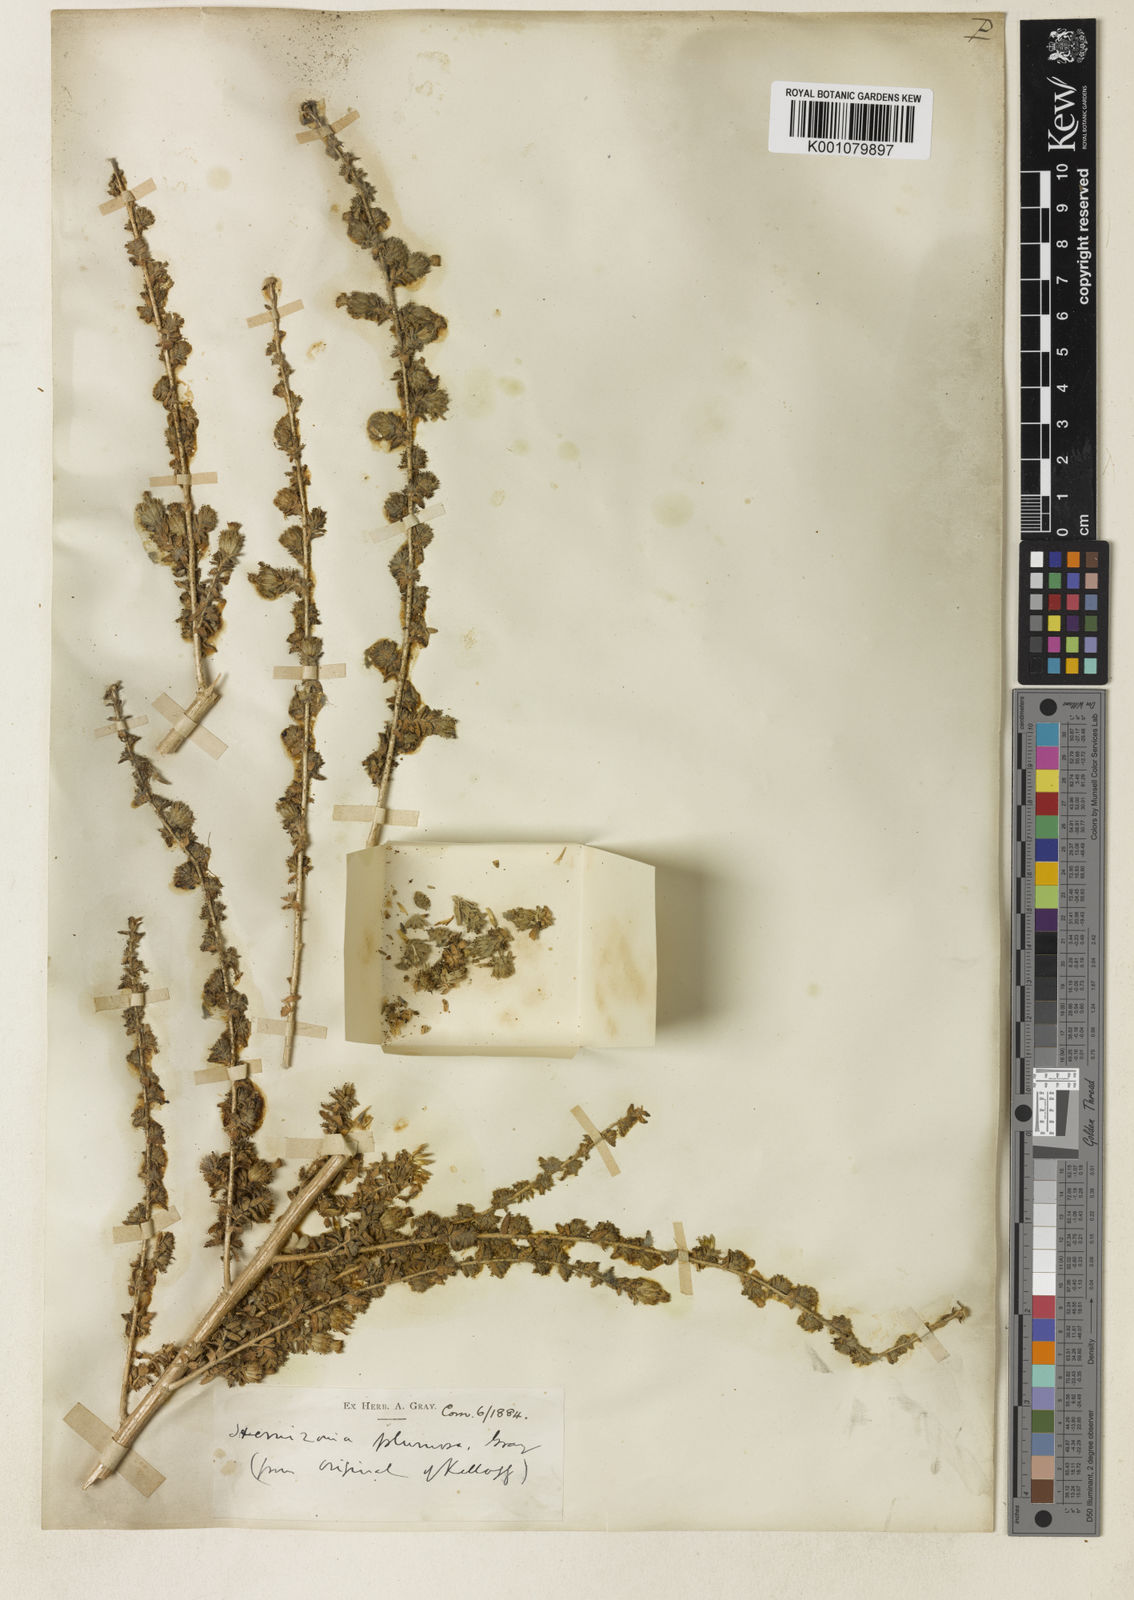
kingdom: Plantae
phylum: Tracheophyta
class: Magnoliopsida
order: Asterales
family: Asteraceae
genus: Blepharizonia
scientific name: Blepharizonia plumosa
